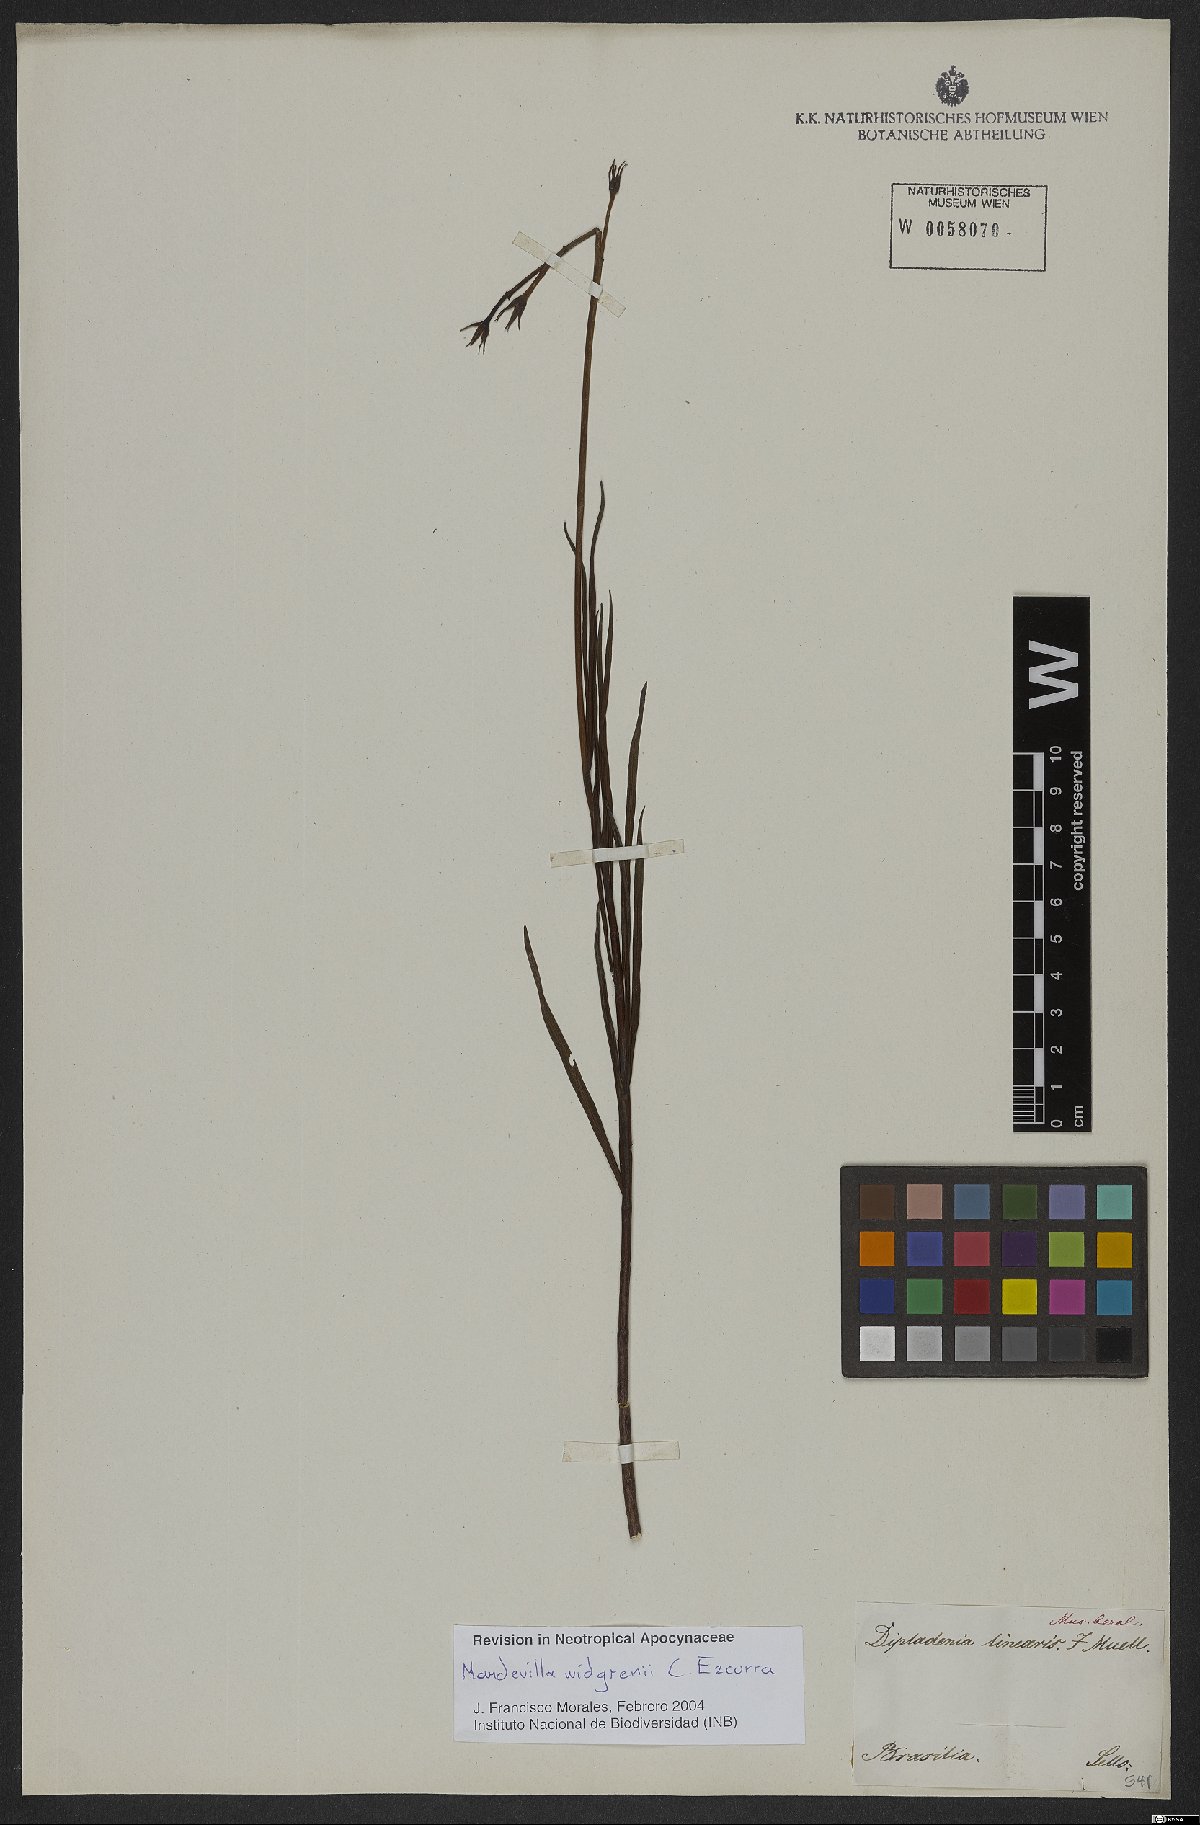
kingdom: Plantae
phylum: Tracheophyta
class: Magnoliopsida
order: Gentianales
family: Apocynaceae
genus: Mandevilla
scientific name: Mandevilla widgrenii
